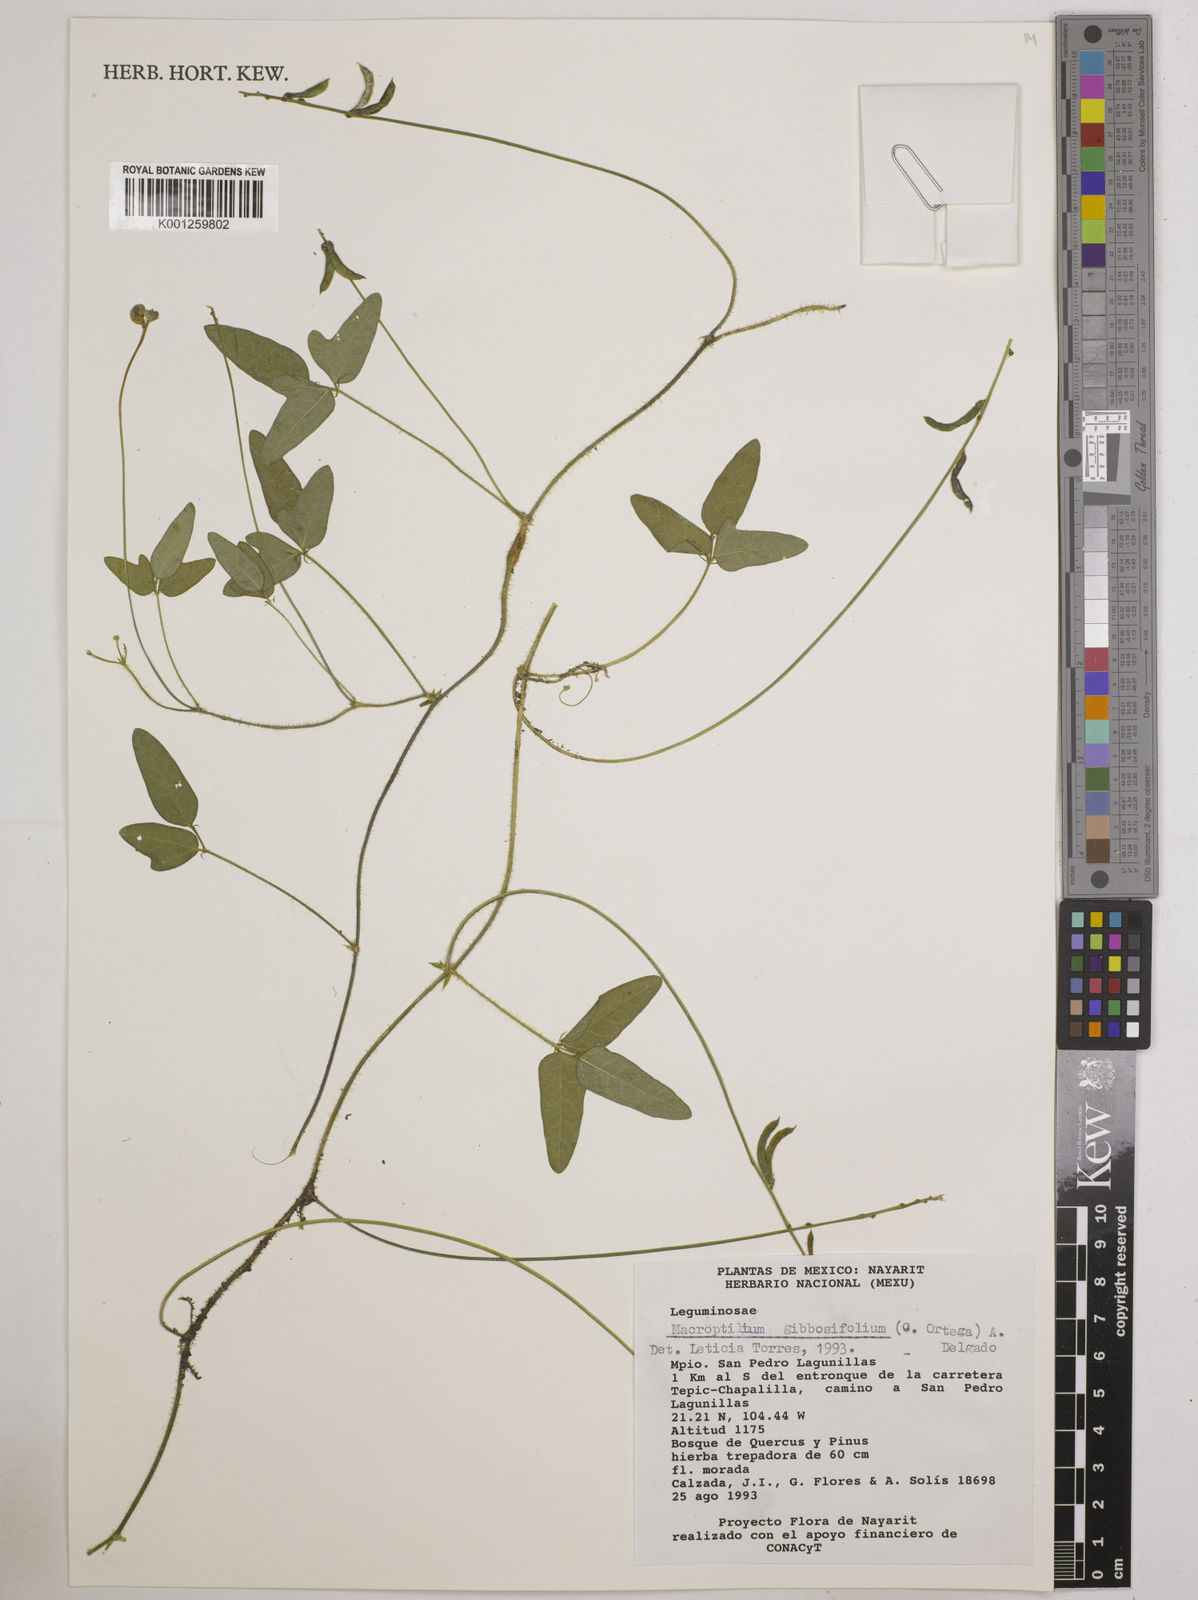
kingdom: Plantae
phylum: Tracheophyta
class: Magnoliopsida
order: Fabales
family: Fabaceae
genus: Macroptilium
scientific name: Macroptilium gibbosifolium
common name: Variableleaf bushbean
